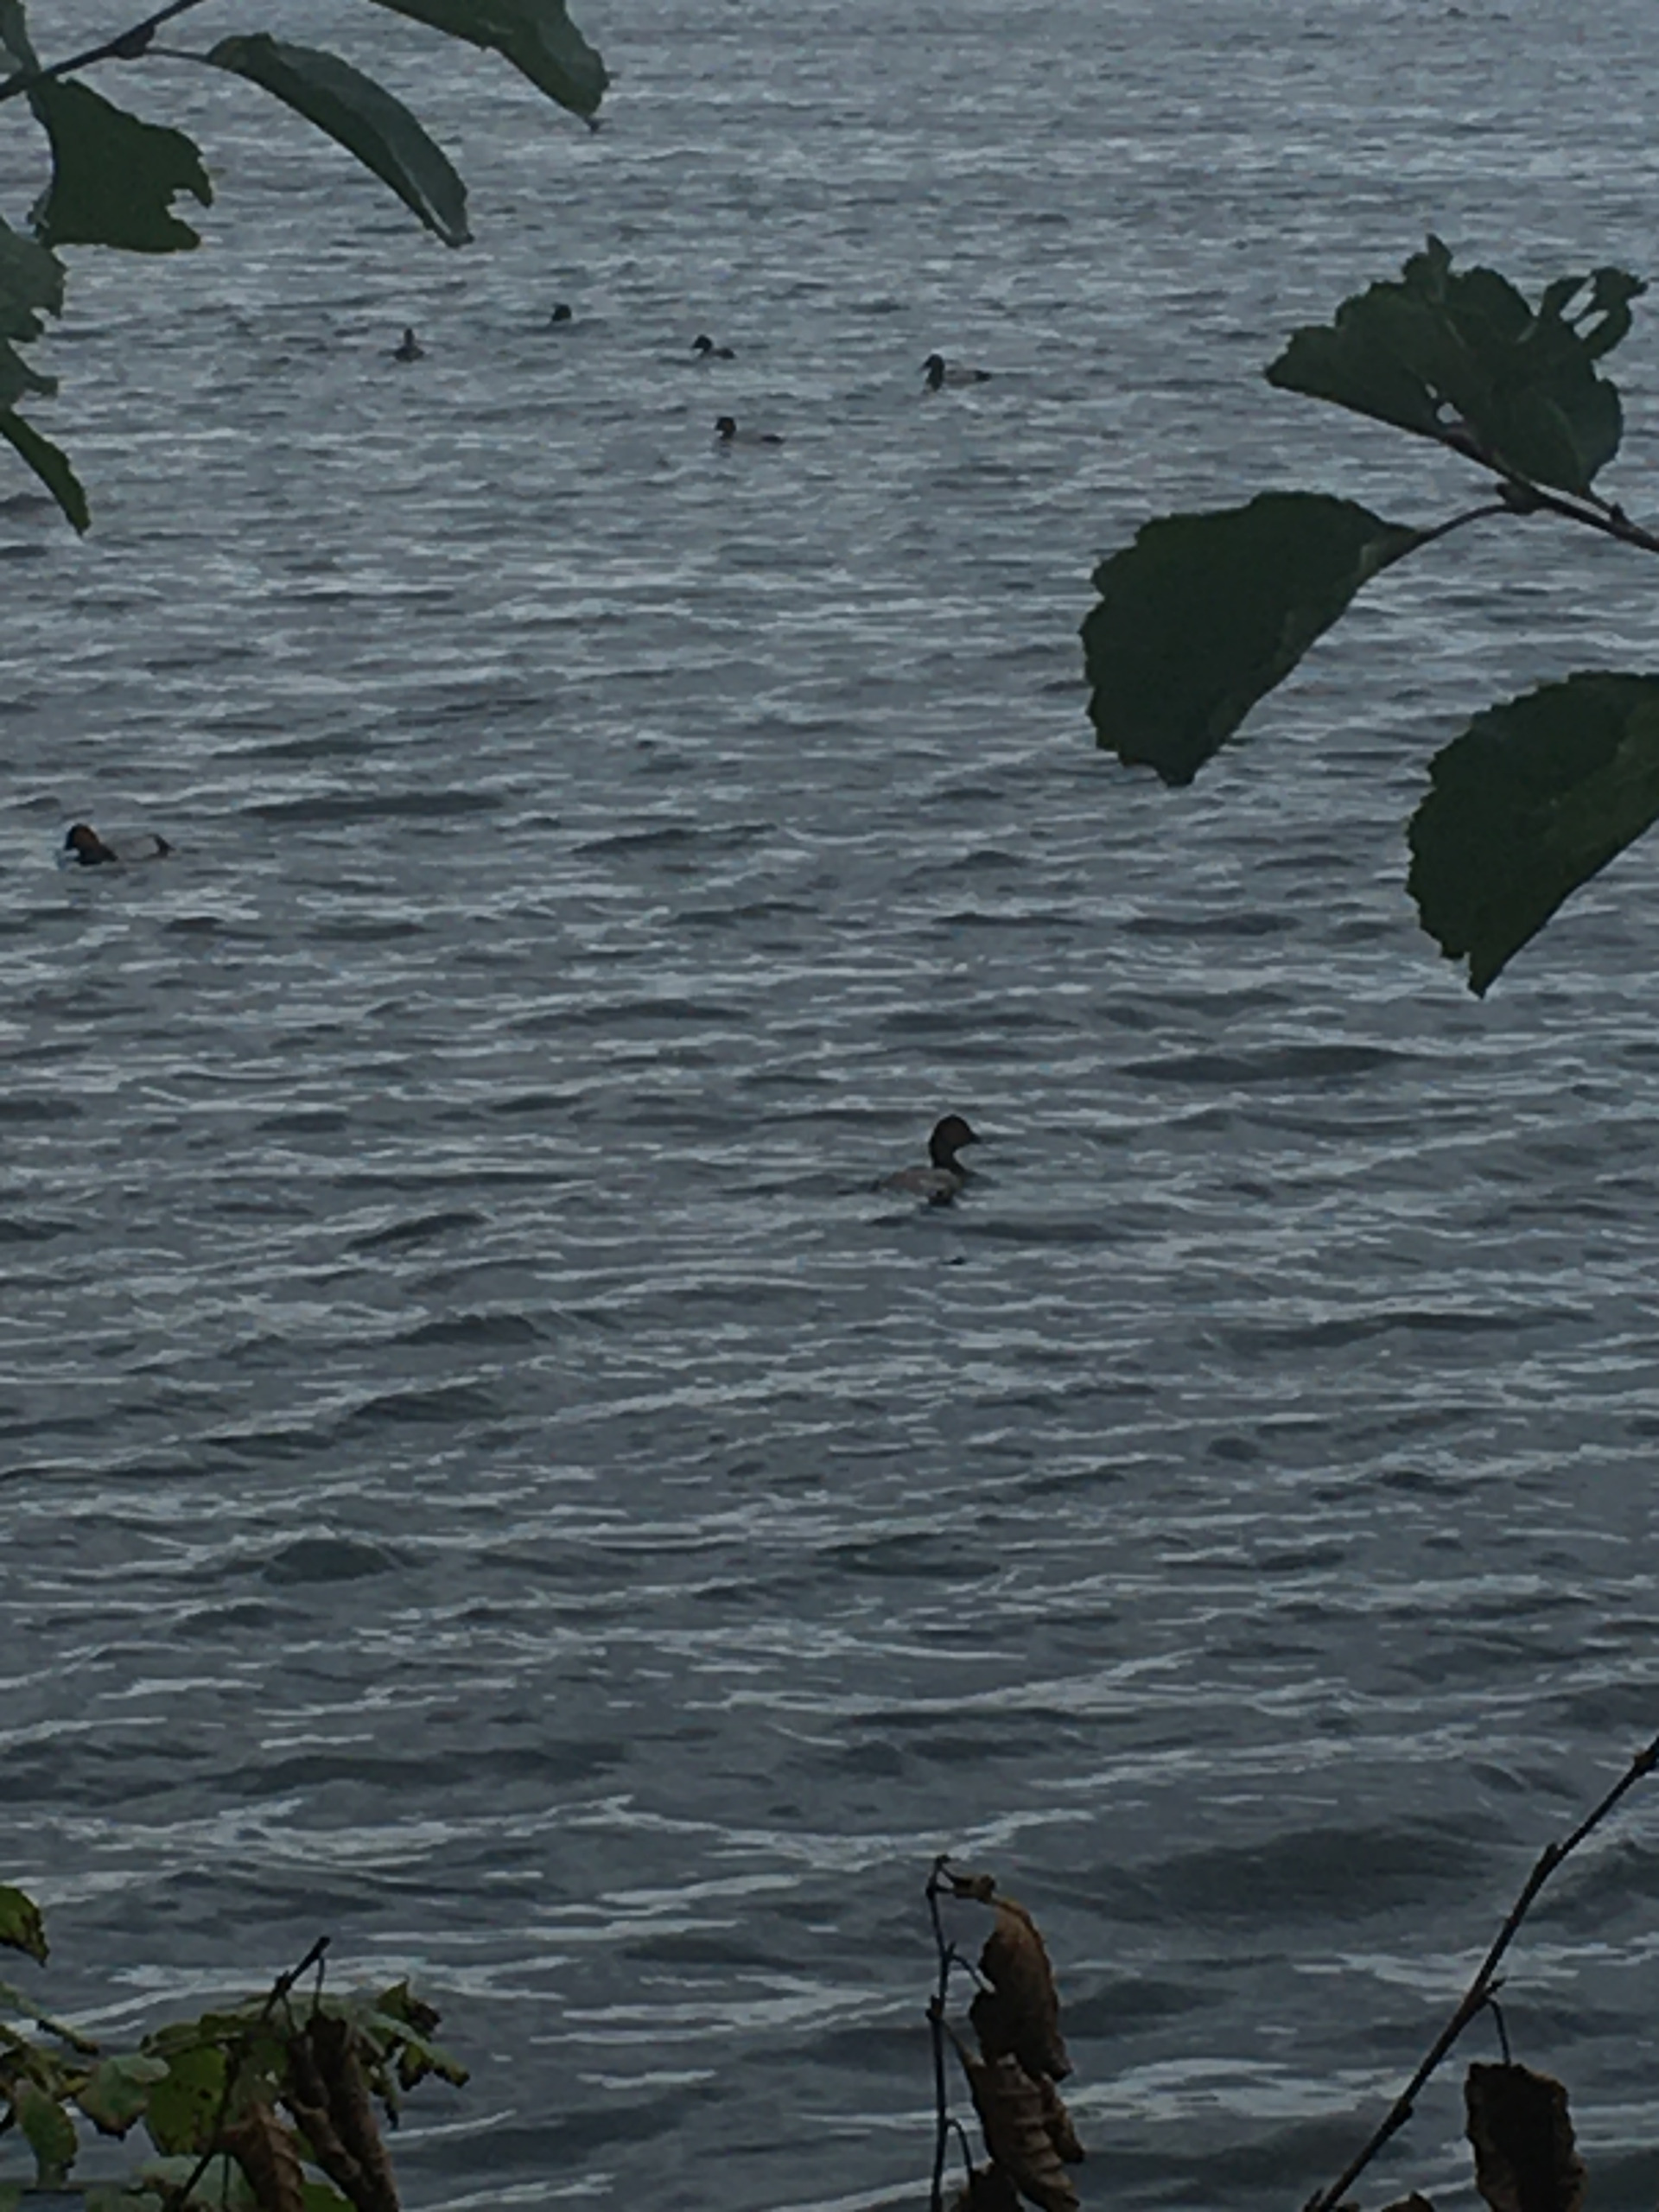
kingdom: Animalia
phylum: Chordata
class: Aves
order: Anseriformes
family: Anatidae
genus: Aythya
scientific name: Aythya ferina
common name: Taffeland
